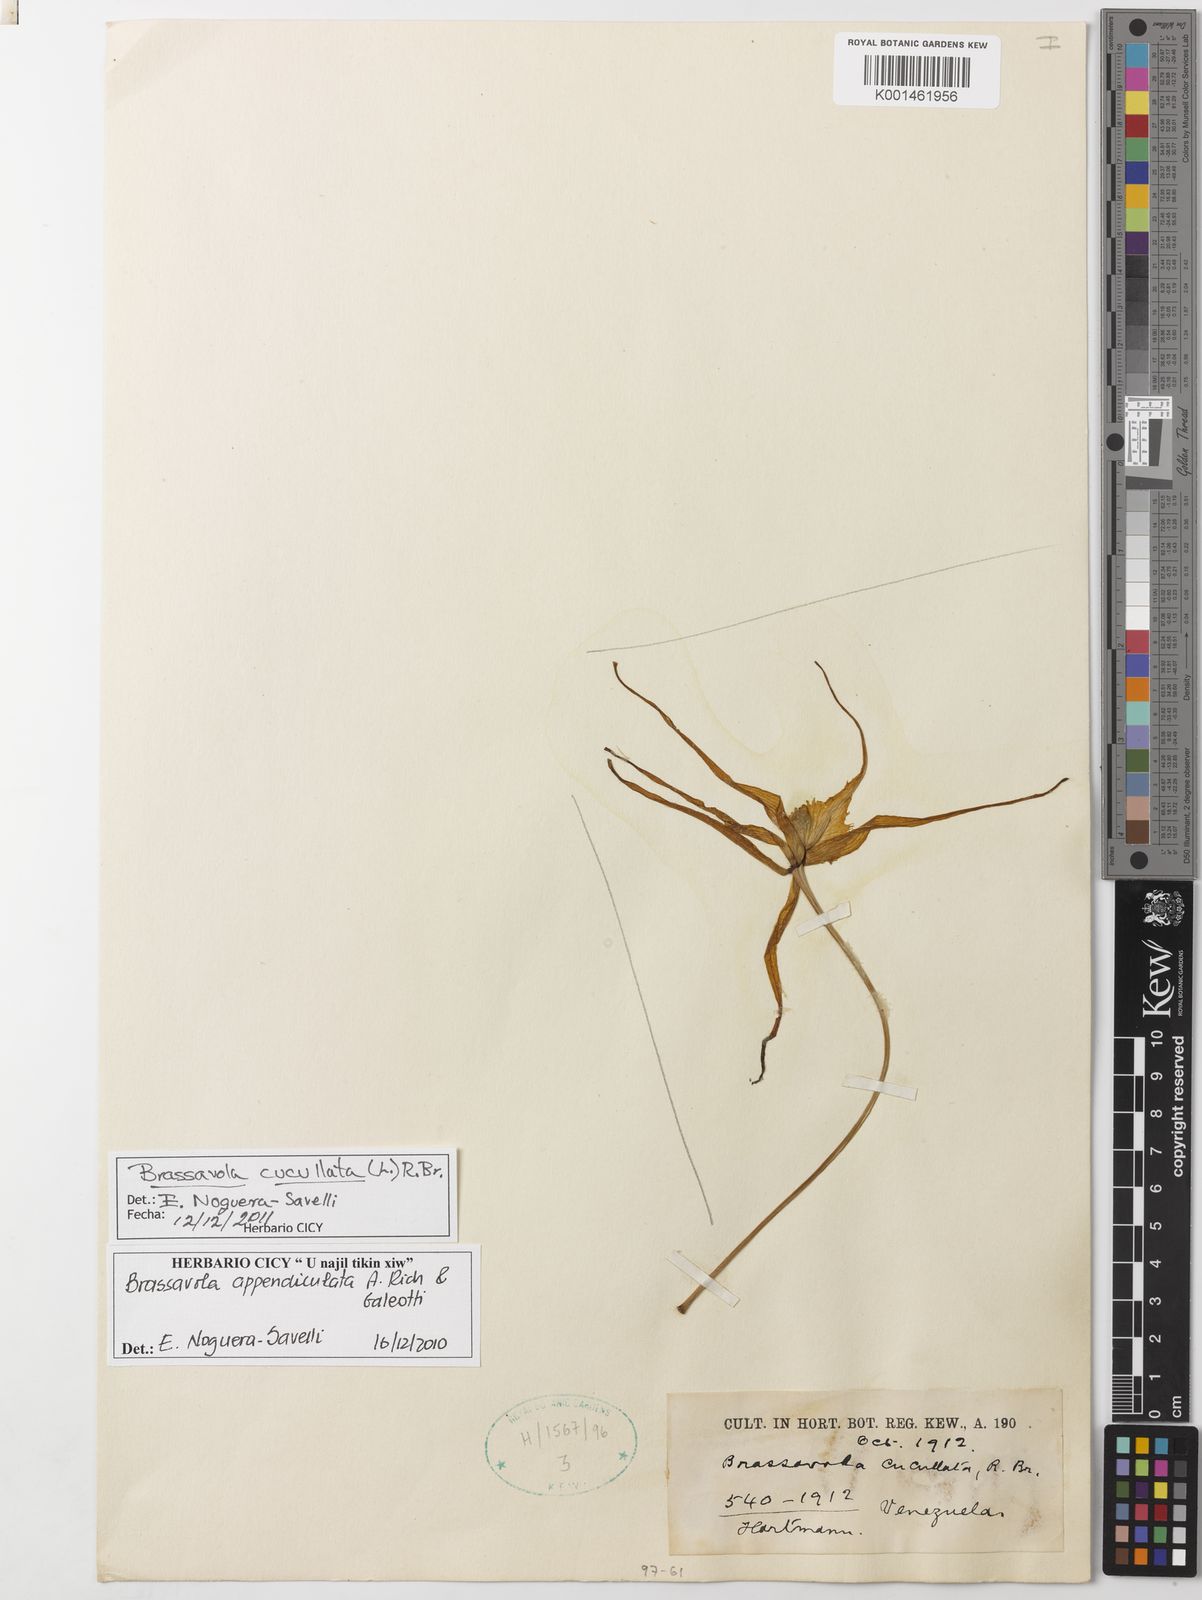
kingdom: Plantae
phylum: Tracheophyta
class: Liliopsida
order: Asparagales
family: Orchidaceae
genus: Brassavola
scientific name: Brassavola cucullata
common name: Daddy longlegs orchid
